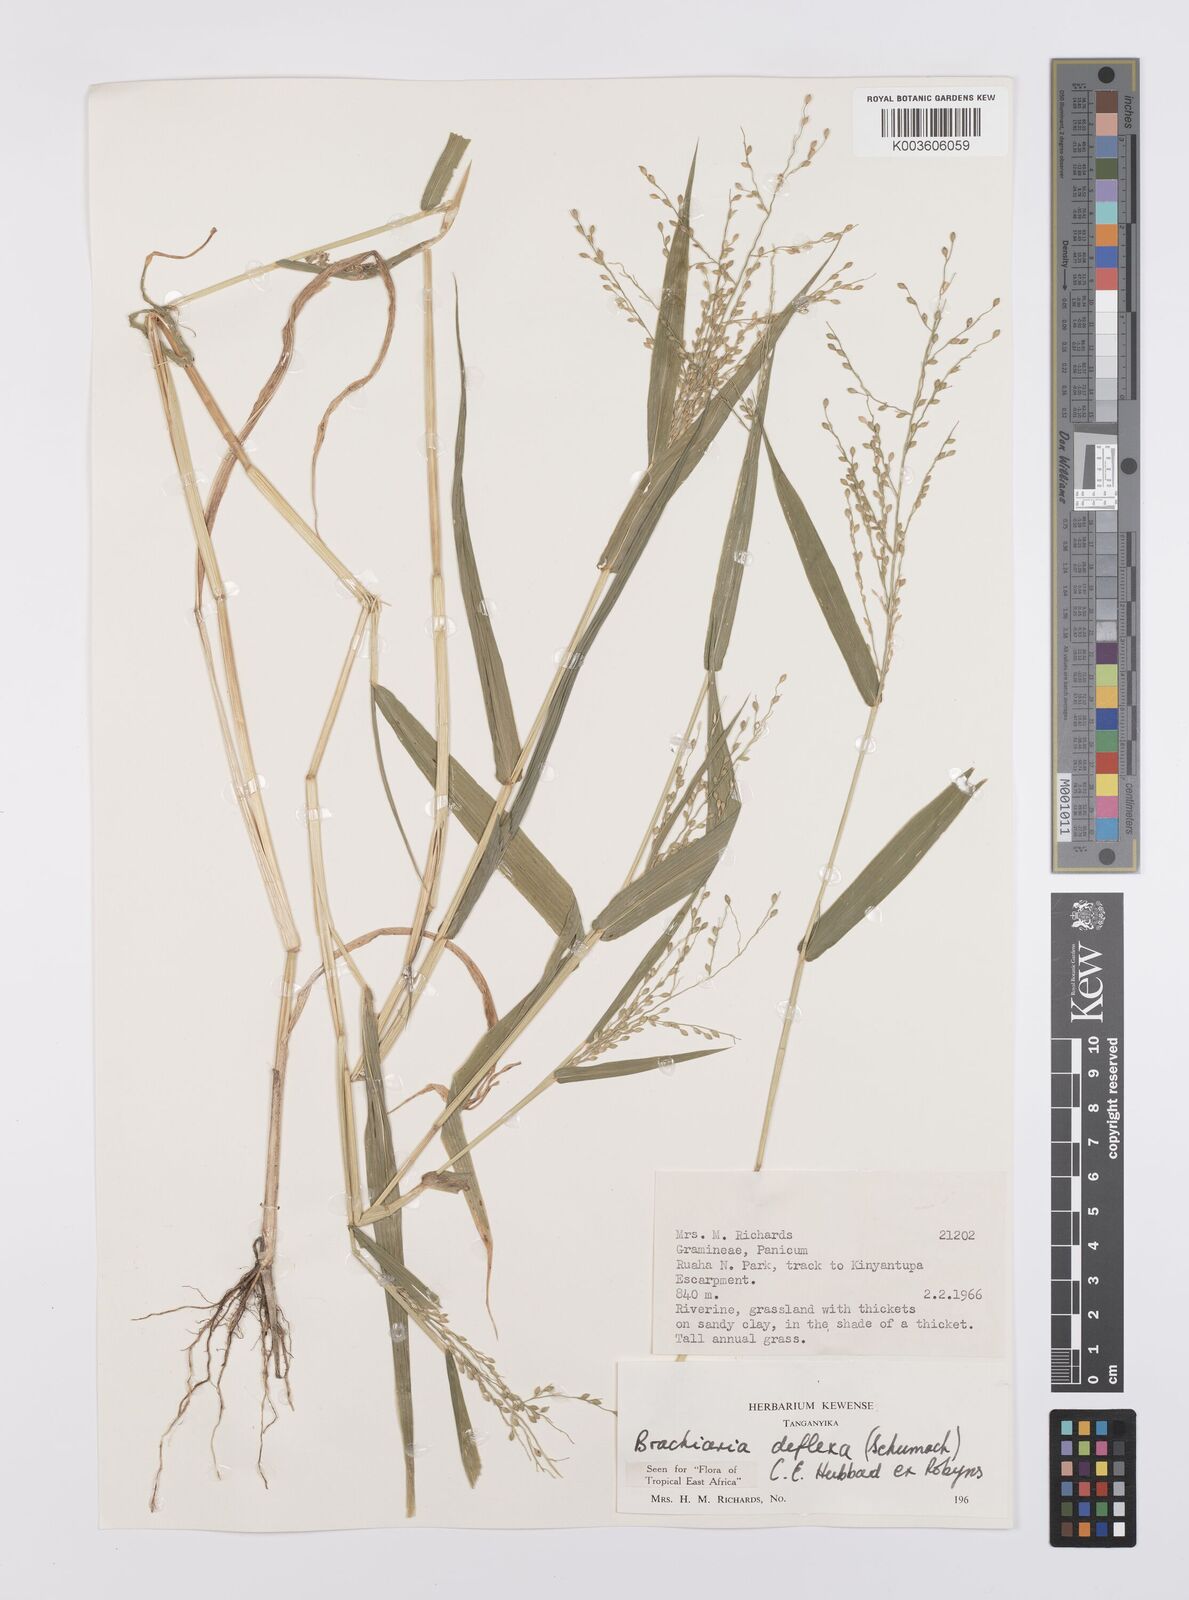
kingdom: Plantae
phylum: Tracheophyta
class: Liliopsida
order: Poales
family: Poaceae
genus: Urochloa
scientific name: Urochloa deflexa
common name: Guinea millet
